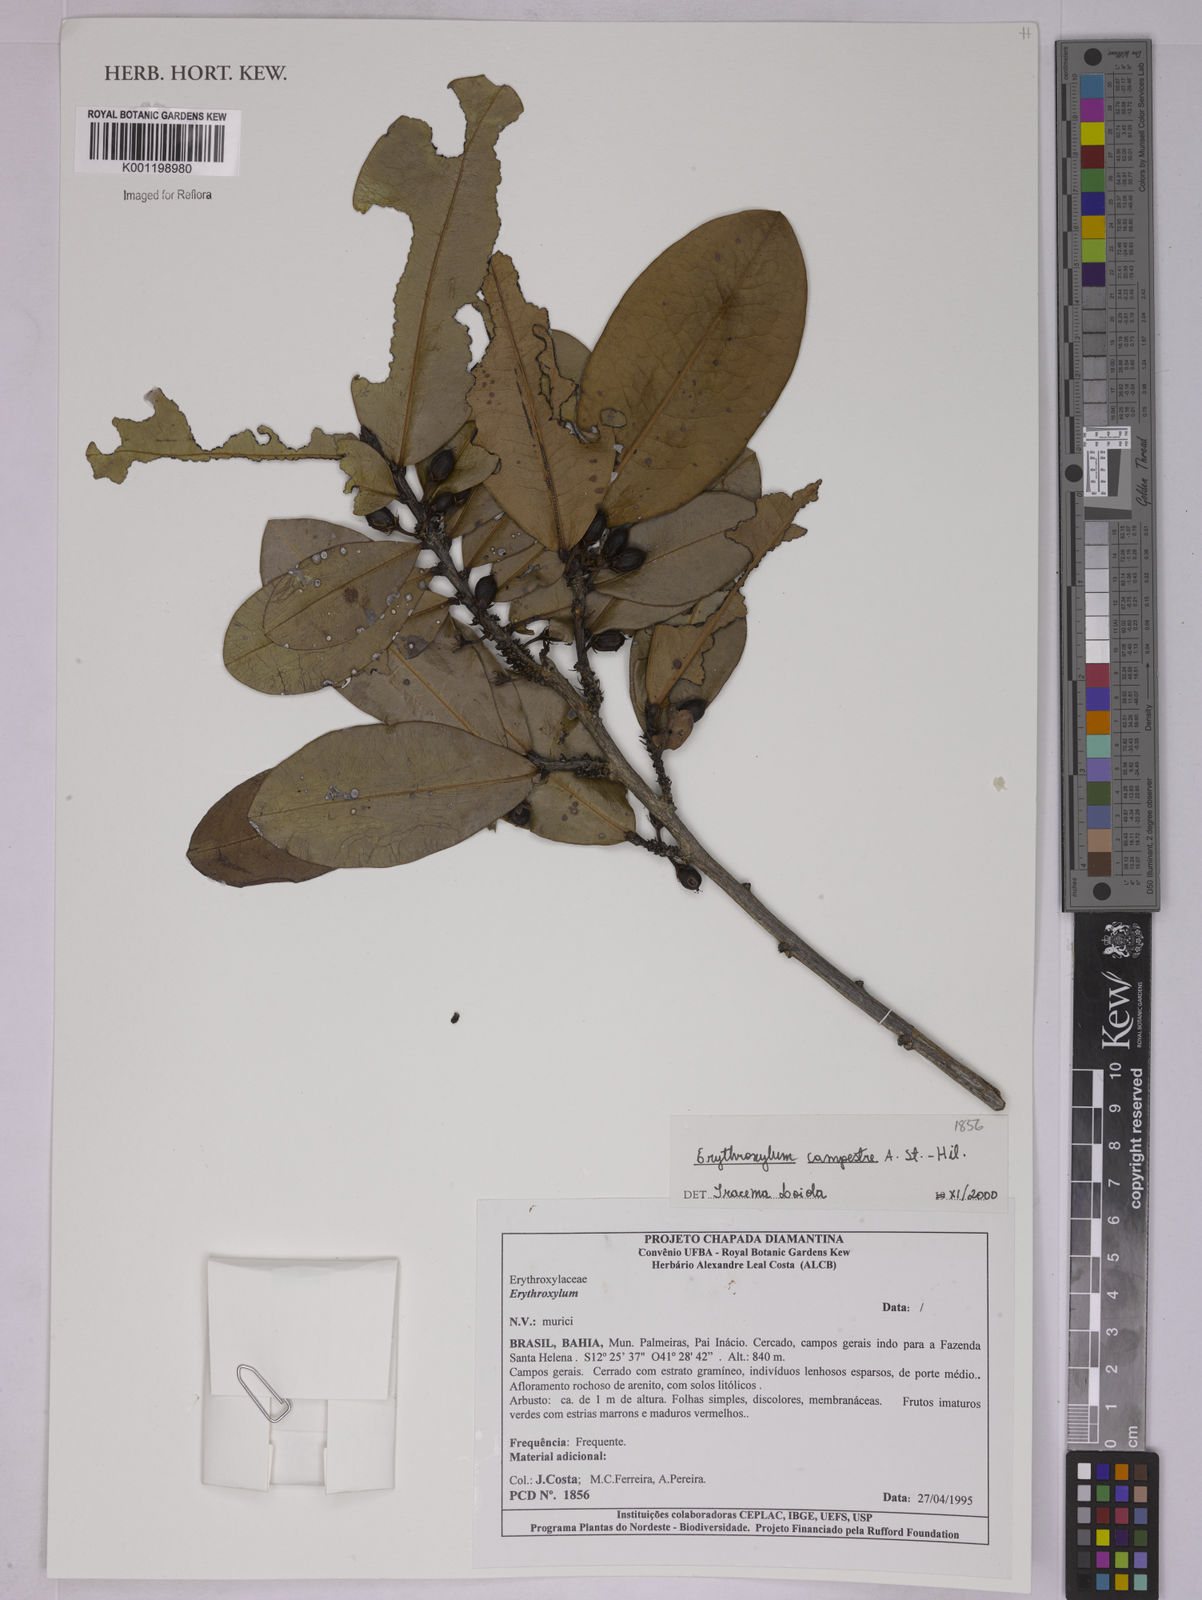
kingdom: Plantae
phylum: Tracheophyta
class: Magnoliopsida
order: Malpighiales
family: Erythroxylaceae
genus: Erythroxylum
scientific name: Erythroxylum campestre
